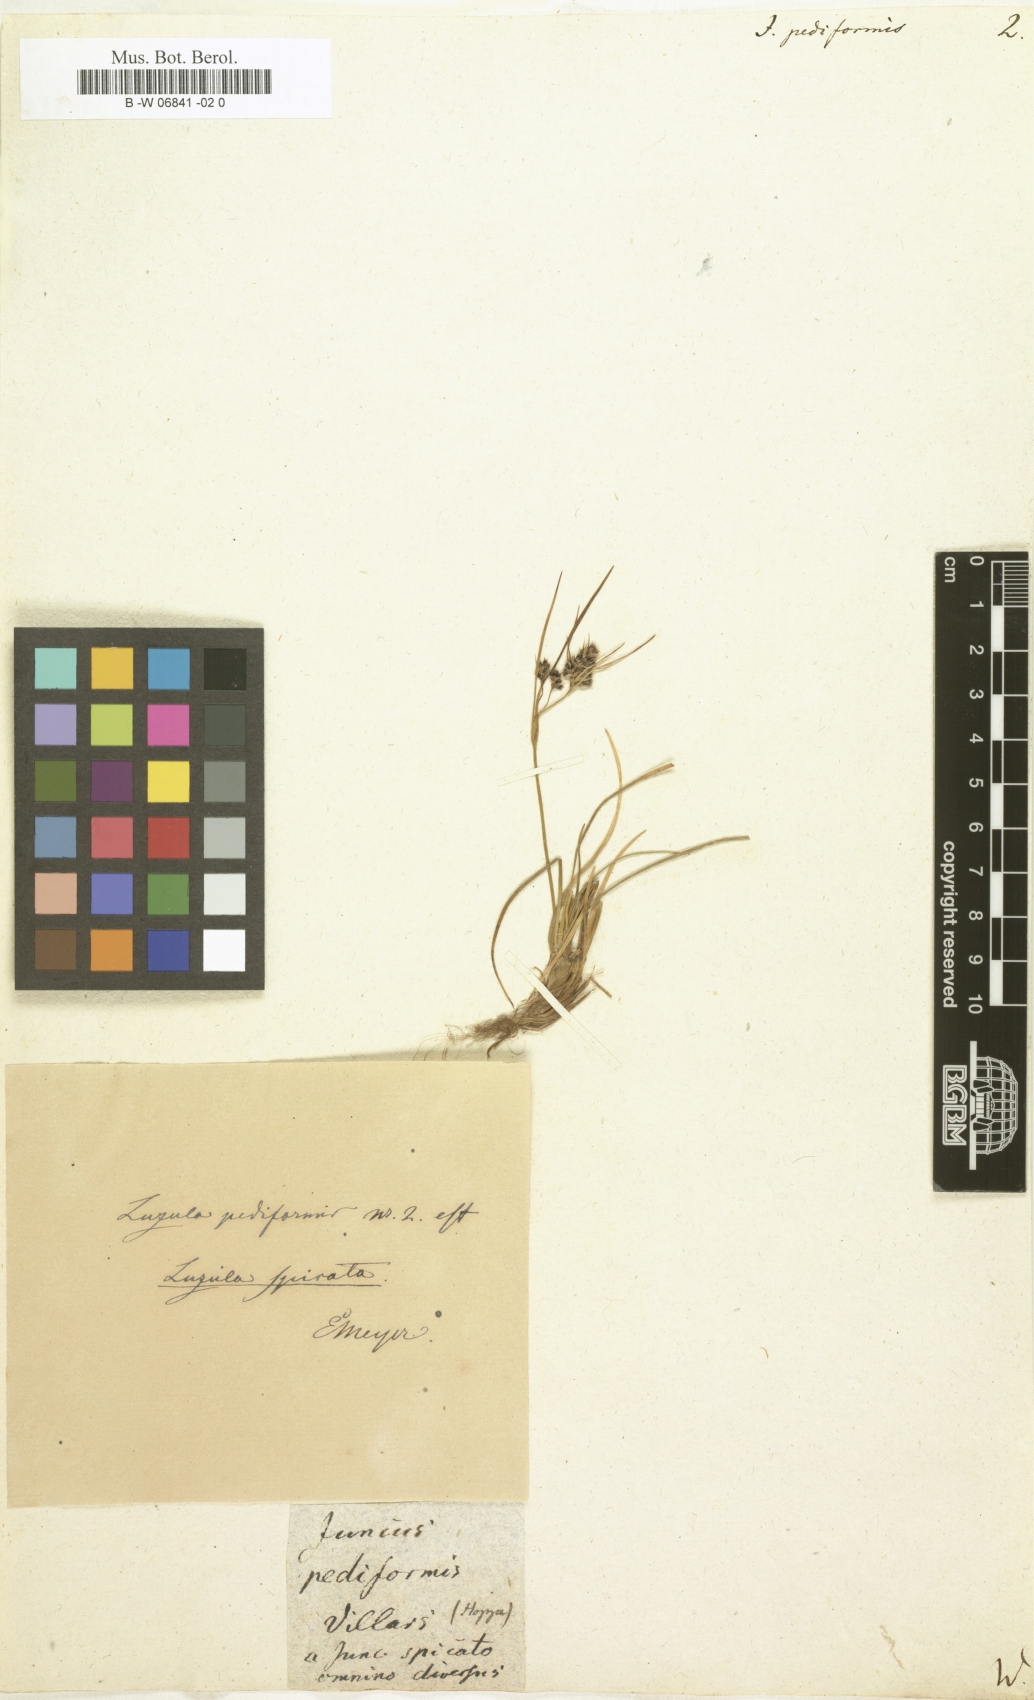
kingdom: Plantae
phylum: Tracheophyta
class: Liliopsida
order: Poales
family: Juncaceae
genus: Luzula
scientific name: Luzula pediformis
